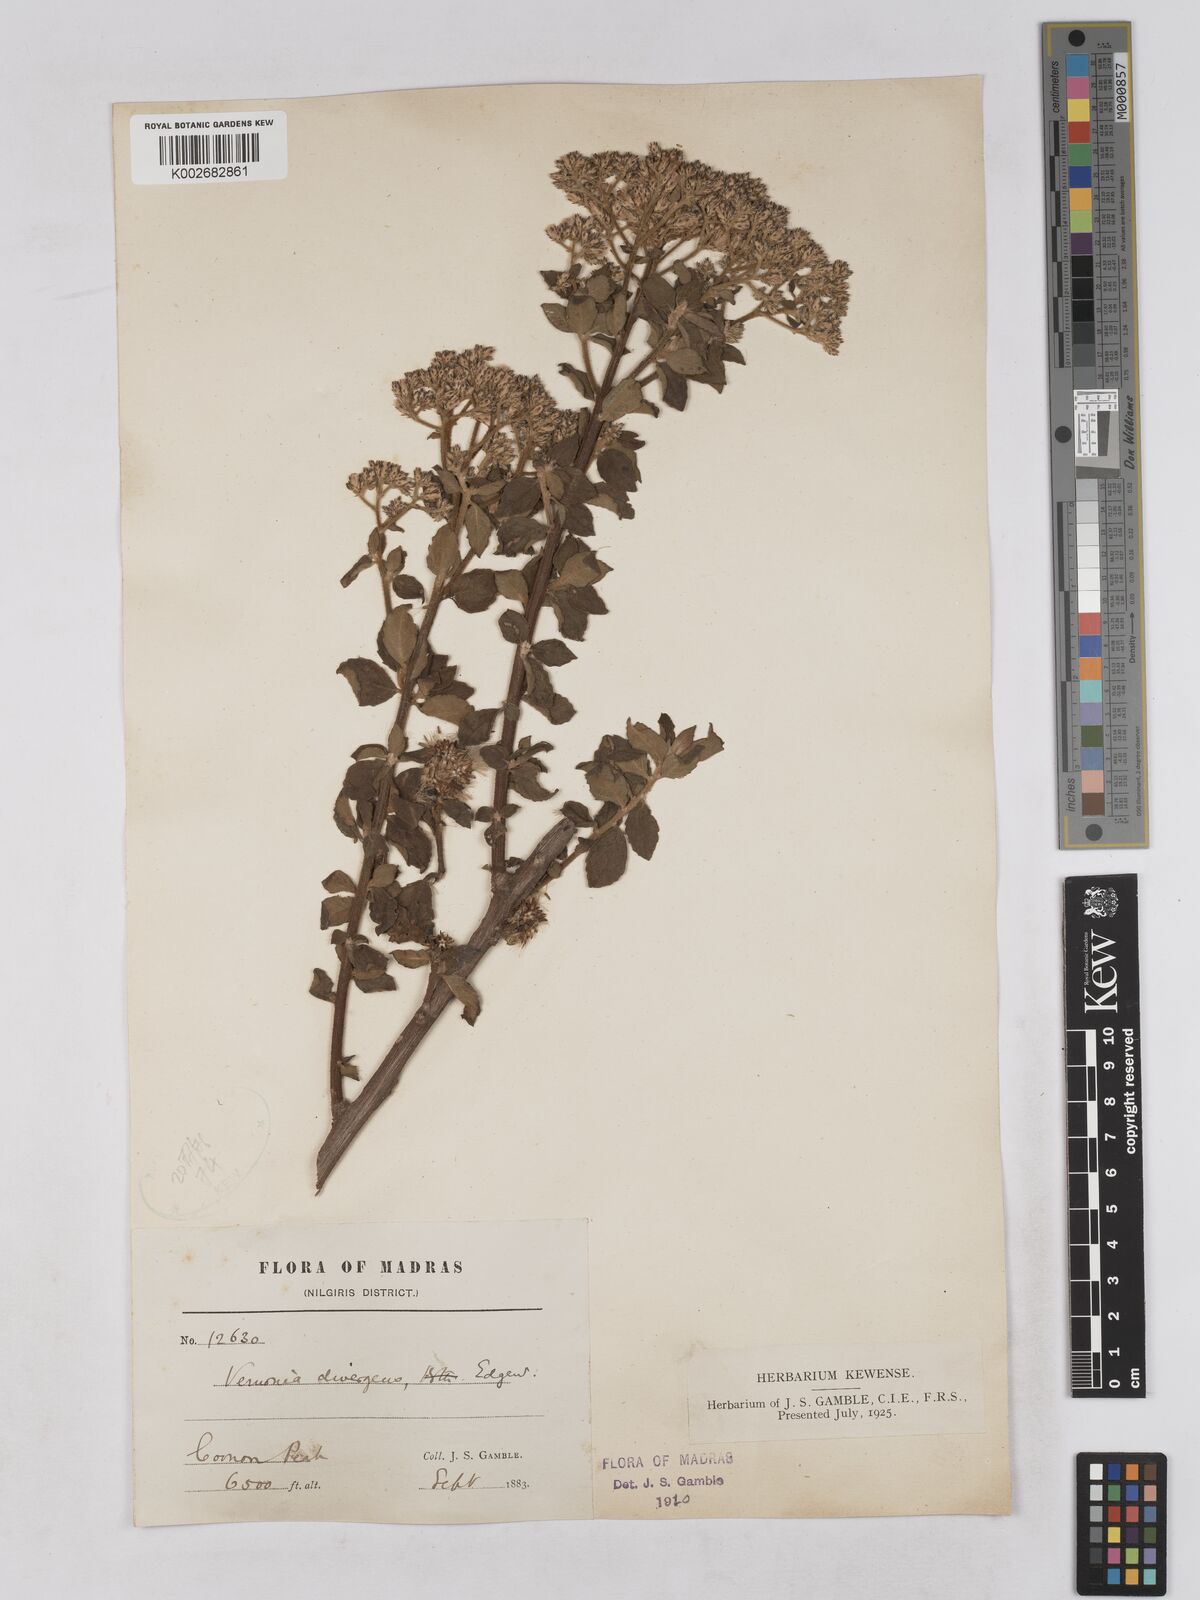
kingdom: Plantae
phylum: Tracheophyta
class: Magnoliopsida
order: Asterales
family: Asteraceae
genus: Acilepis
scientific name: Acilepis divergens
